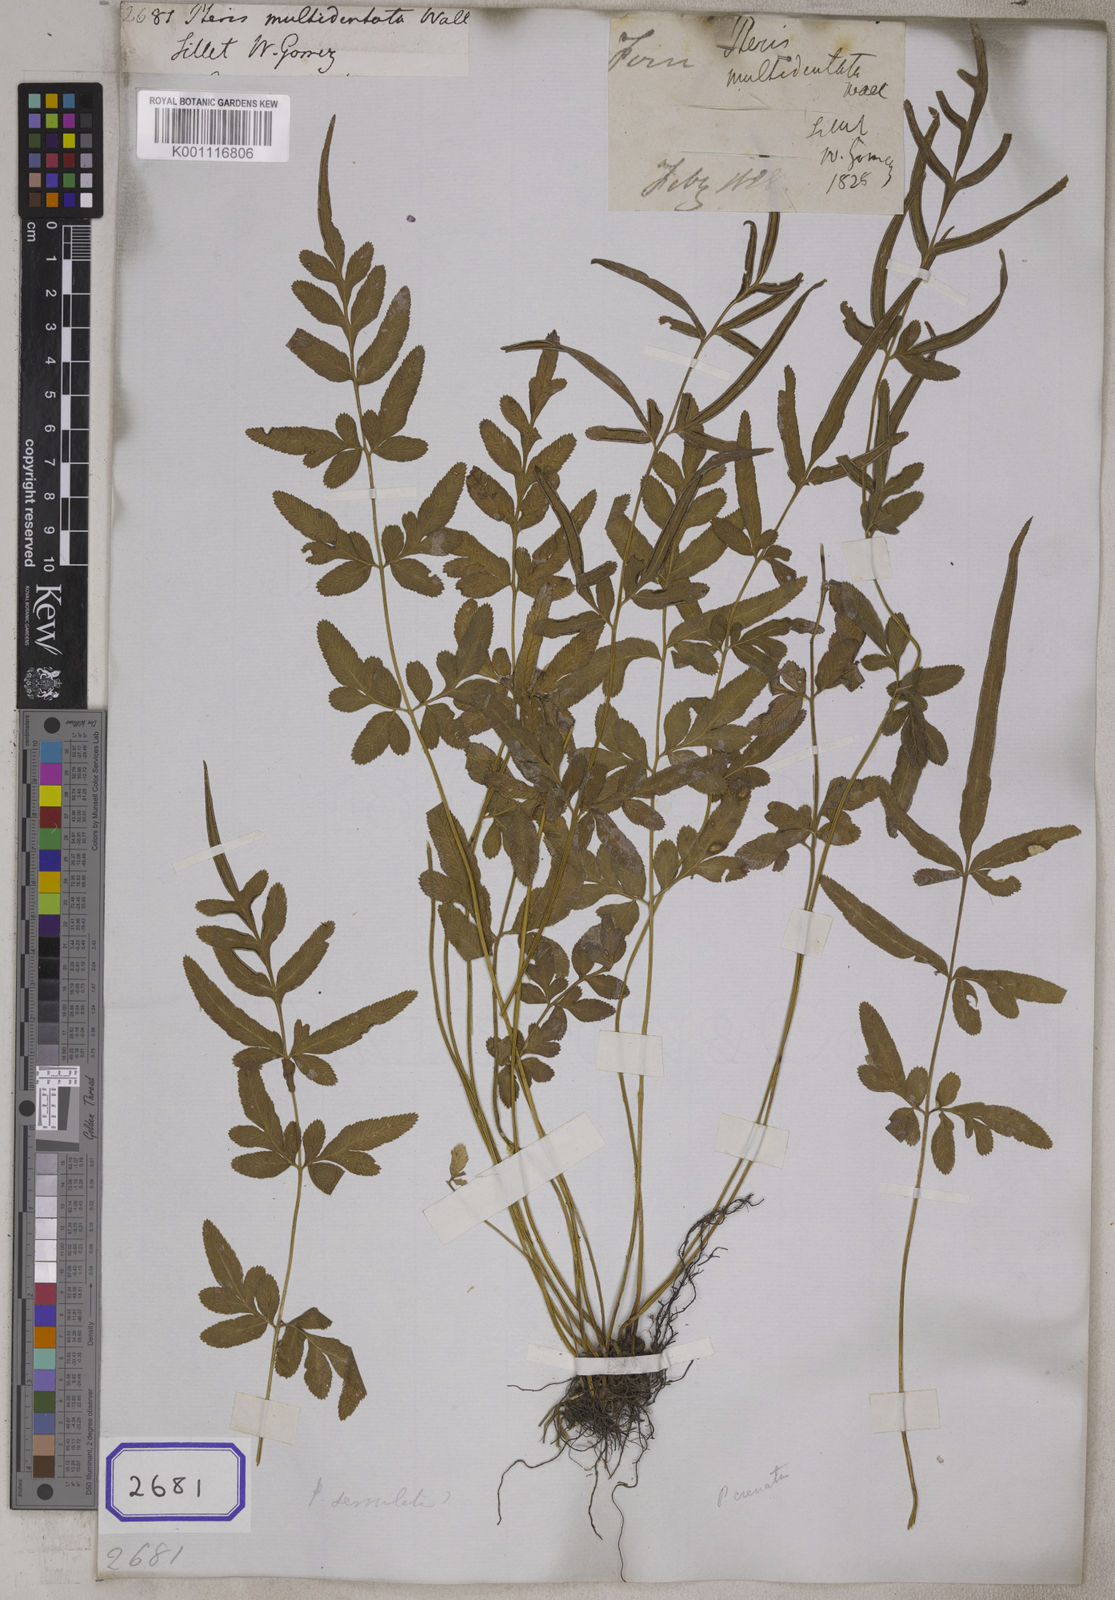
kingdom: Plantae
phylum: Tracheophyta
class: Polypodiopsida
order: Polypodiales
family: Pteridaceae
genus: Pteris
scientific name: Pteris ensiformis
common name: Sword brake
